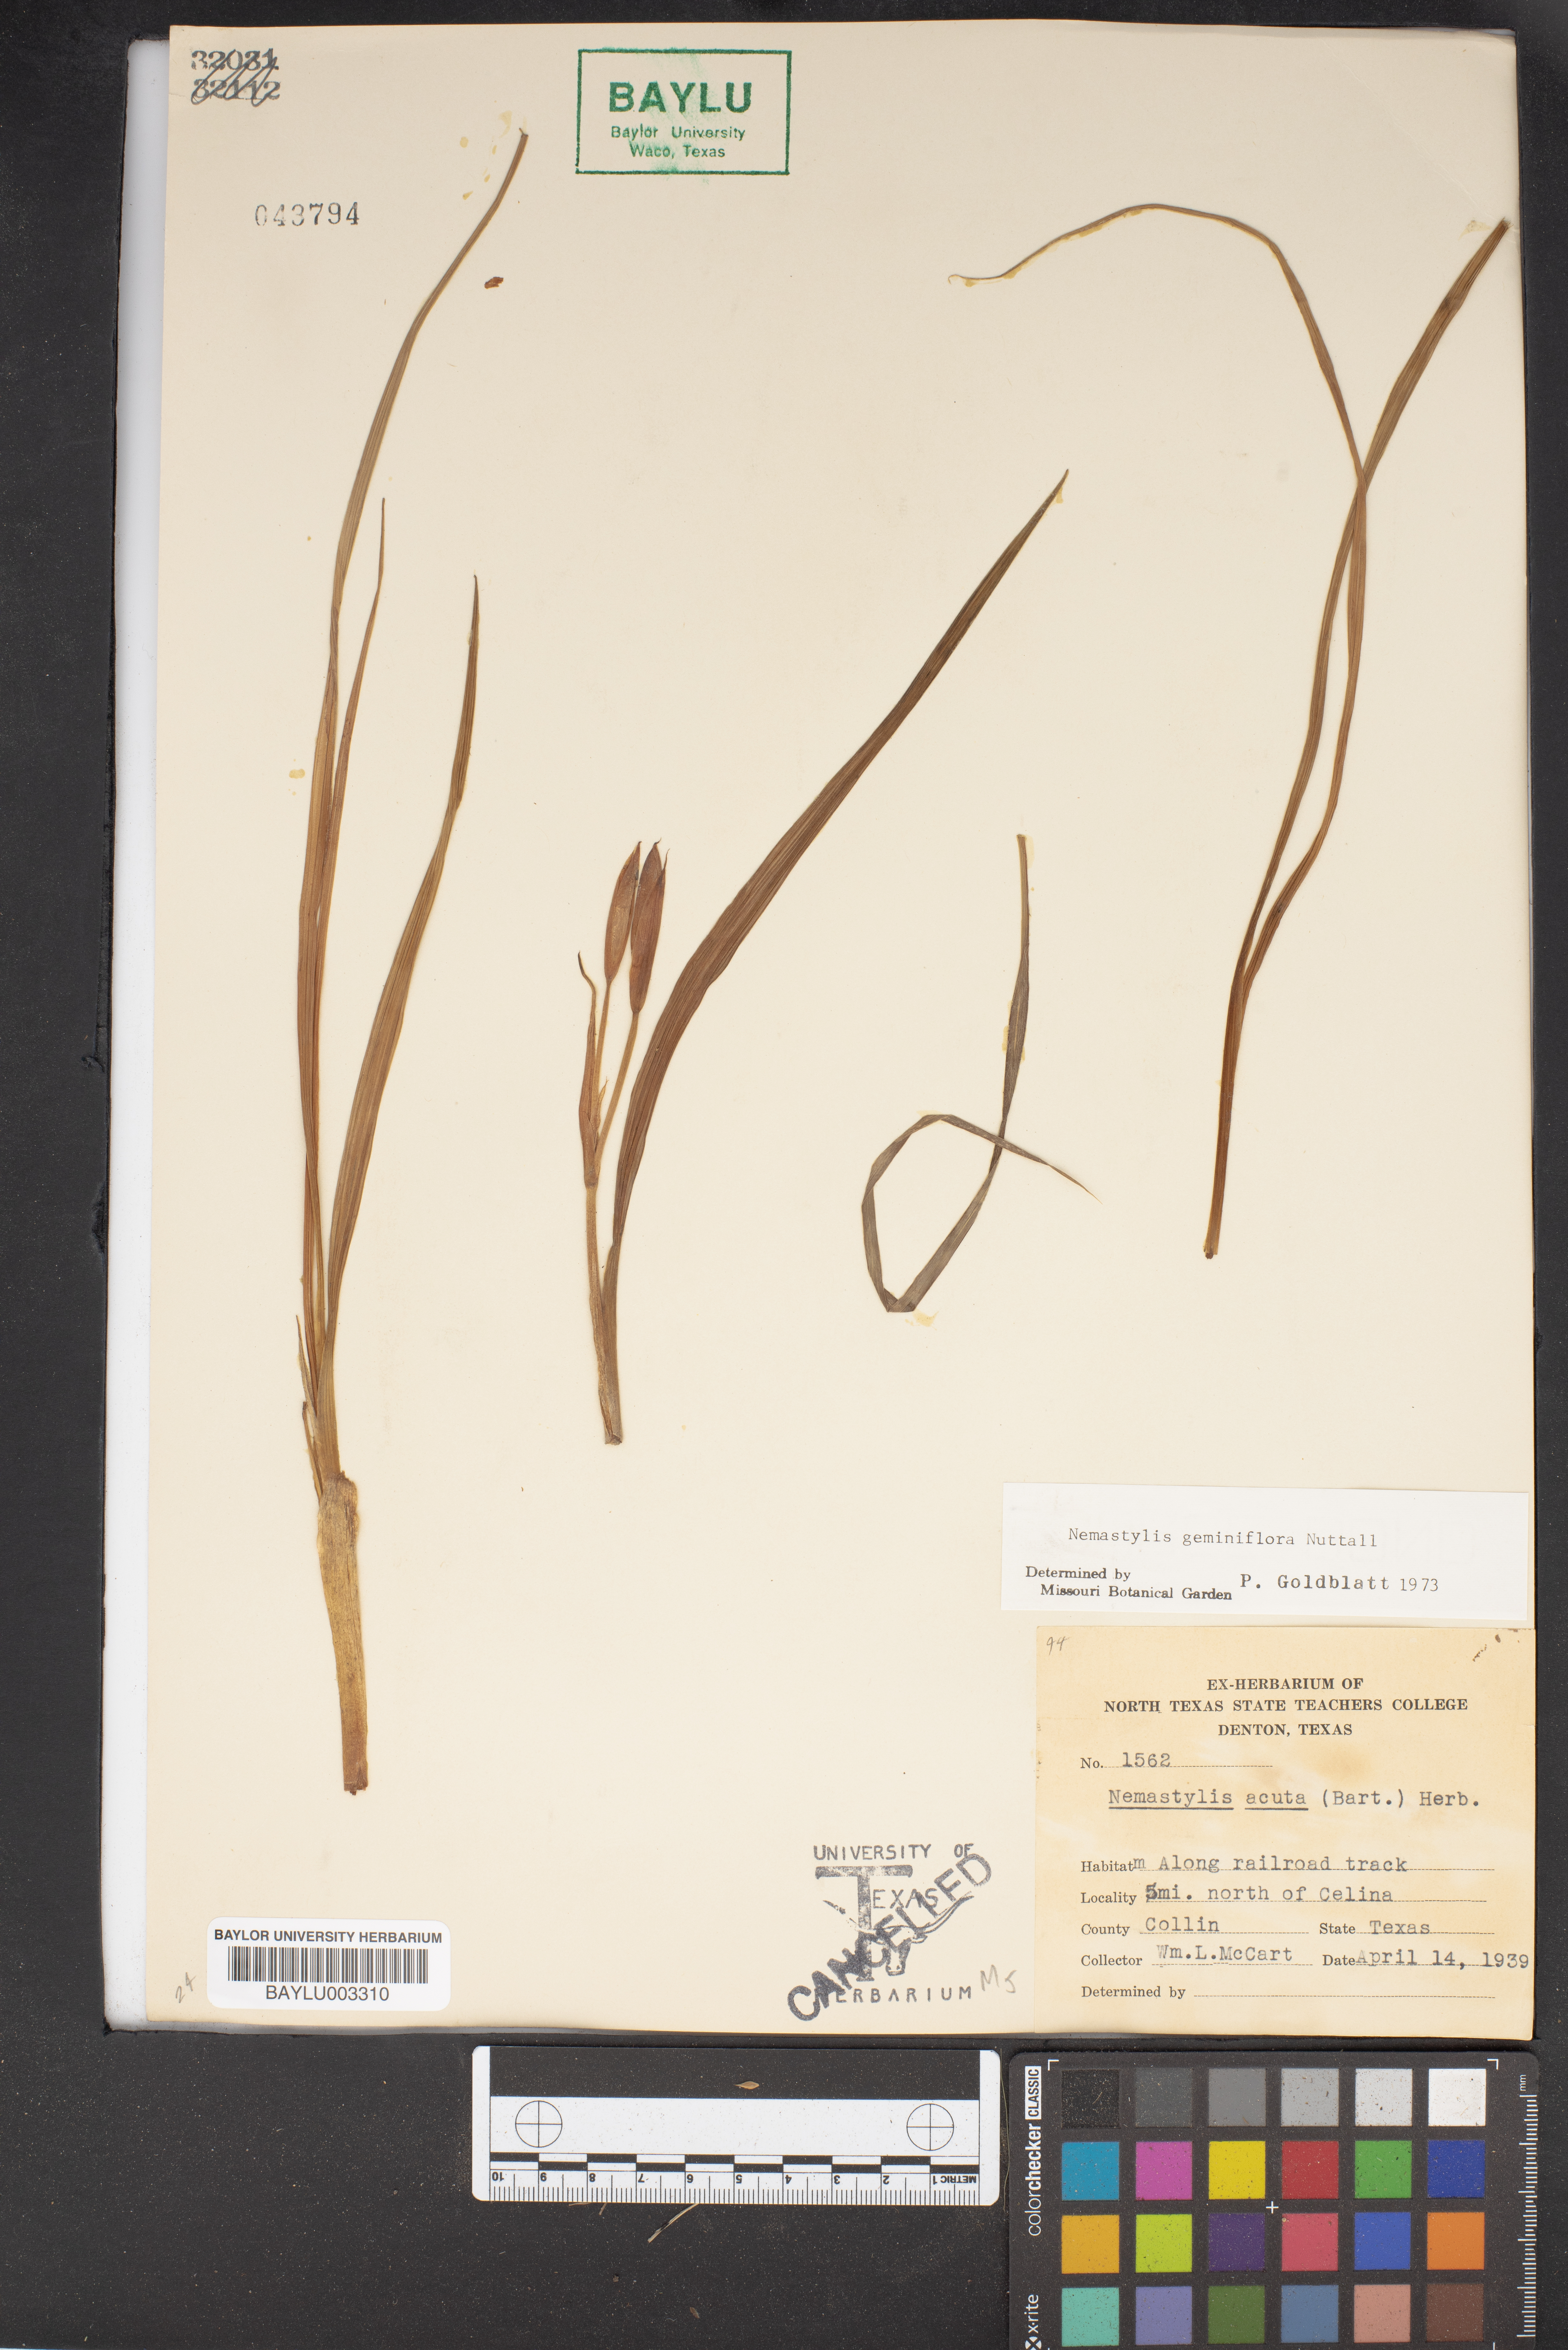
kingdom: Plantae
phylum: Tracheophyta
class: Liliopsida
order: Asparagales
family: Iridaceae
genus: Nemastylis
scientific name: Nemastylis geminiflora
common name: Prairie celestial
